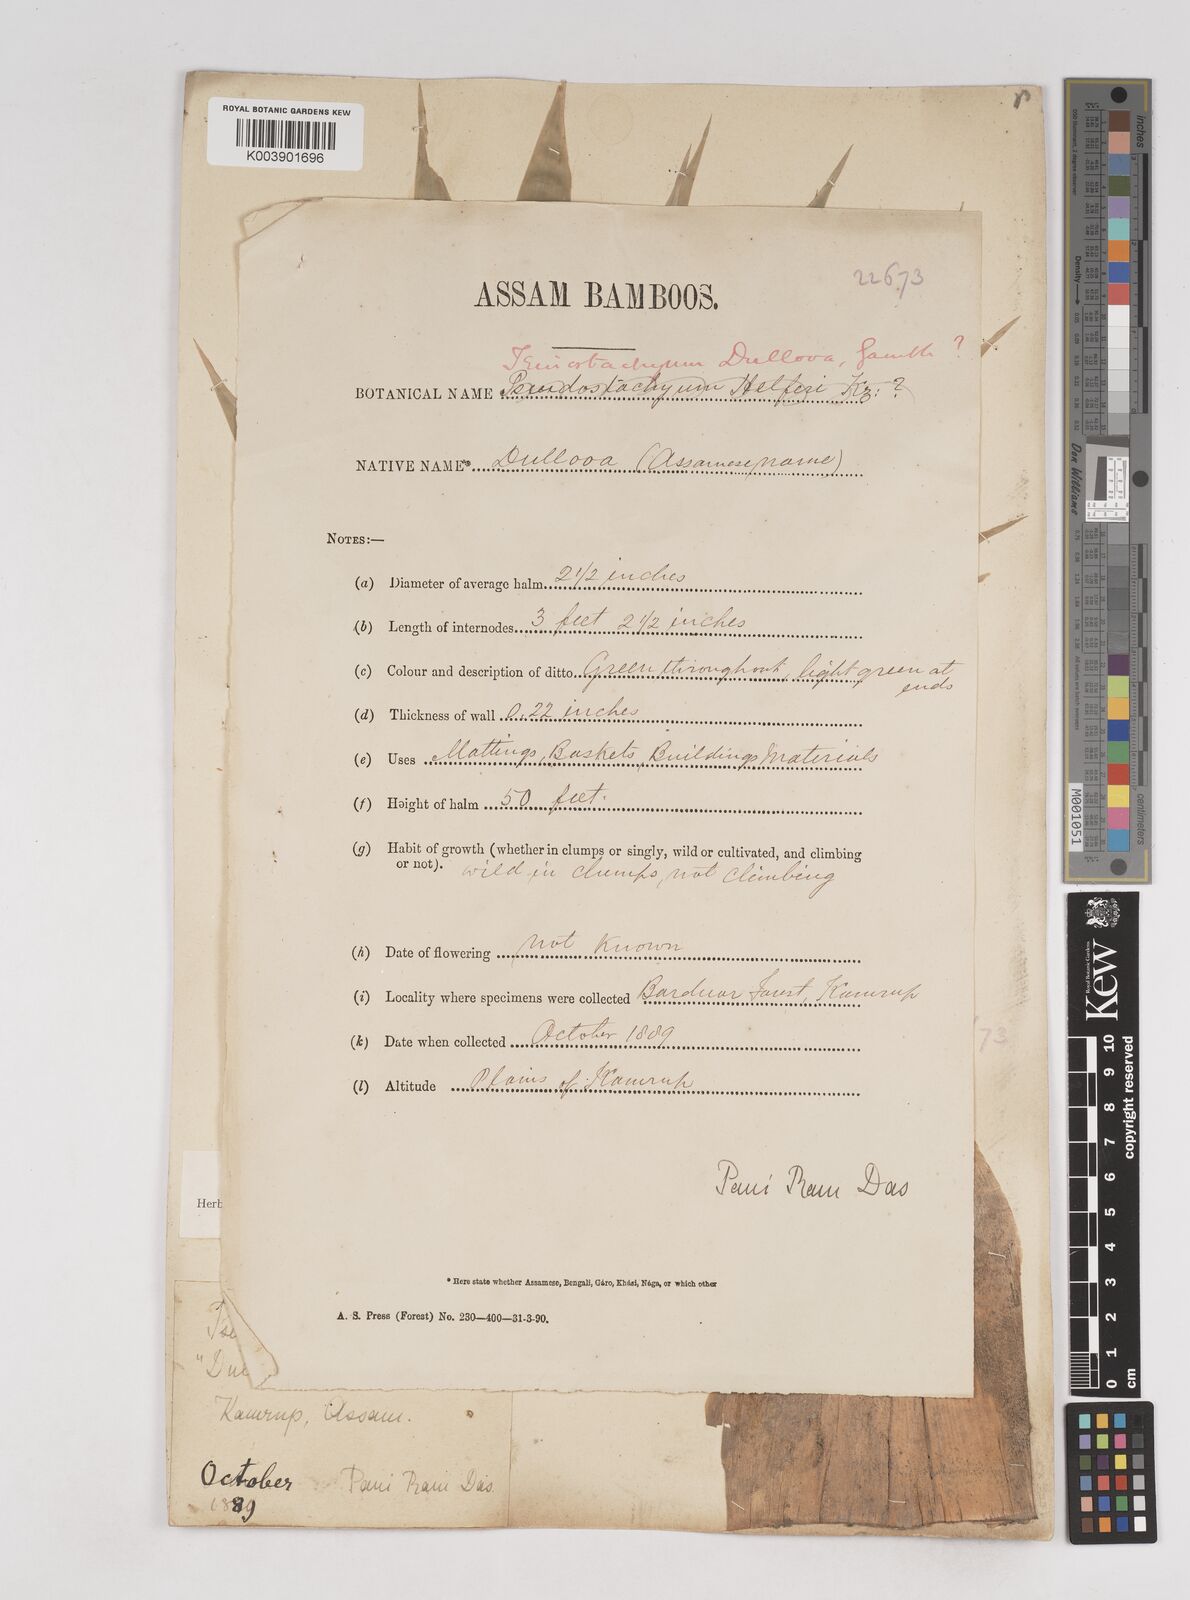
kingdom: Plantae
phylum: Tracheophyta
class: Liliopsida
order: Poales
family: Poaceae
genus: Schizostachyum
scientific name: Schizostachyum dullooa
